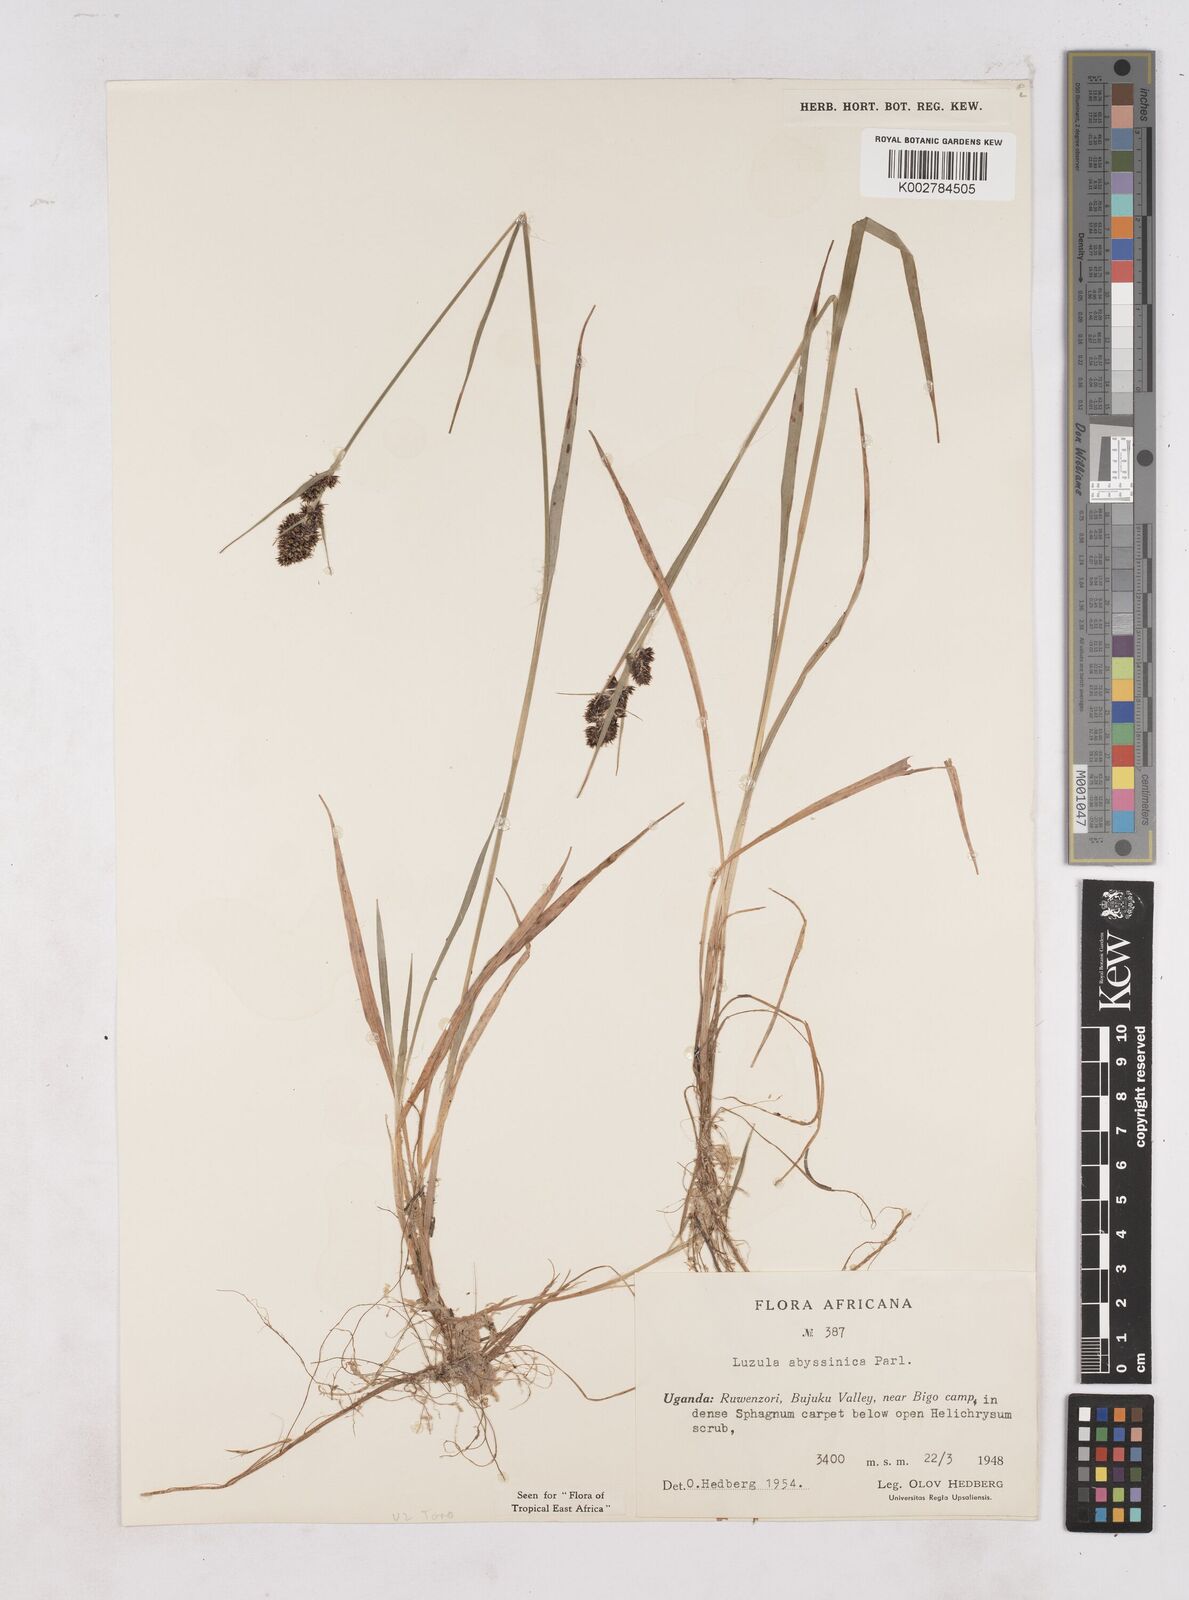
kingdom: Plantae
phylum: Tracheophyta
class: Liliopsida
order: Poales
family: Juncaceae
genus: Luzula
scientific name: Luzula abyssinica
